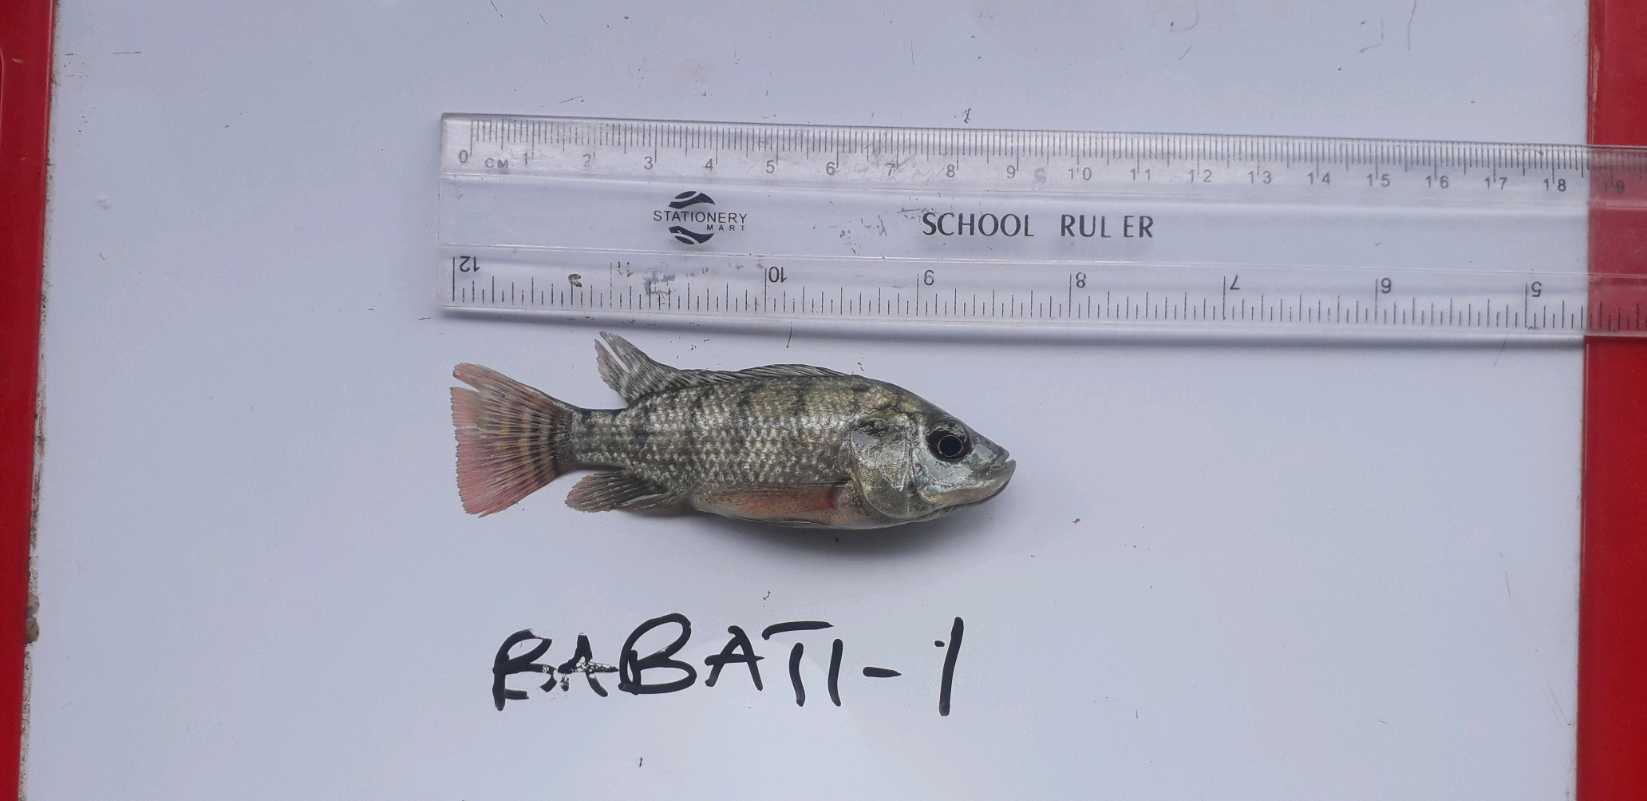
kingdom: Animalia
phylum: Chordata
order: Perciformes
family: Cichlidae
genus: Oreochromis
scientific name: Oreochromis niloticus
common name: Nile tilapia
